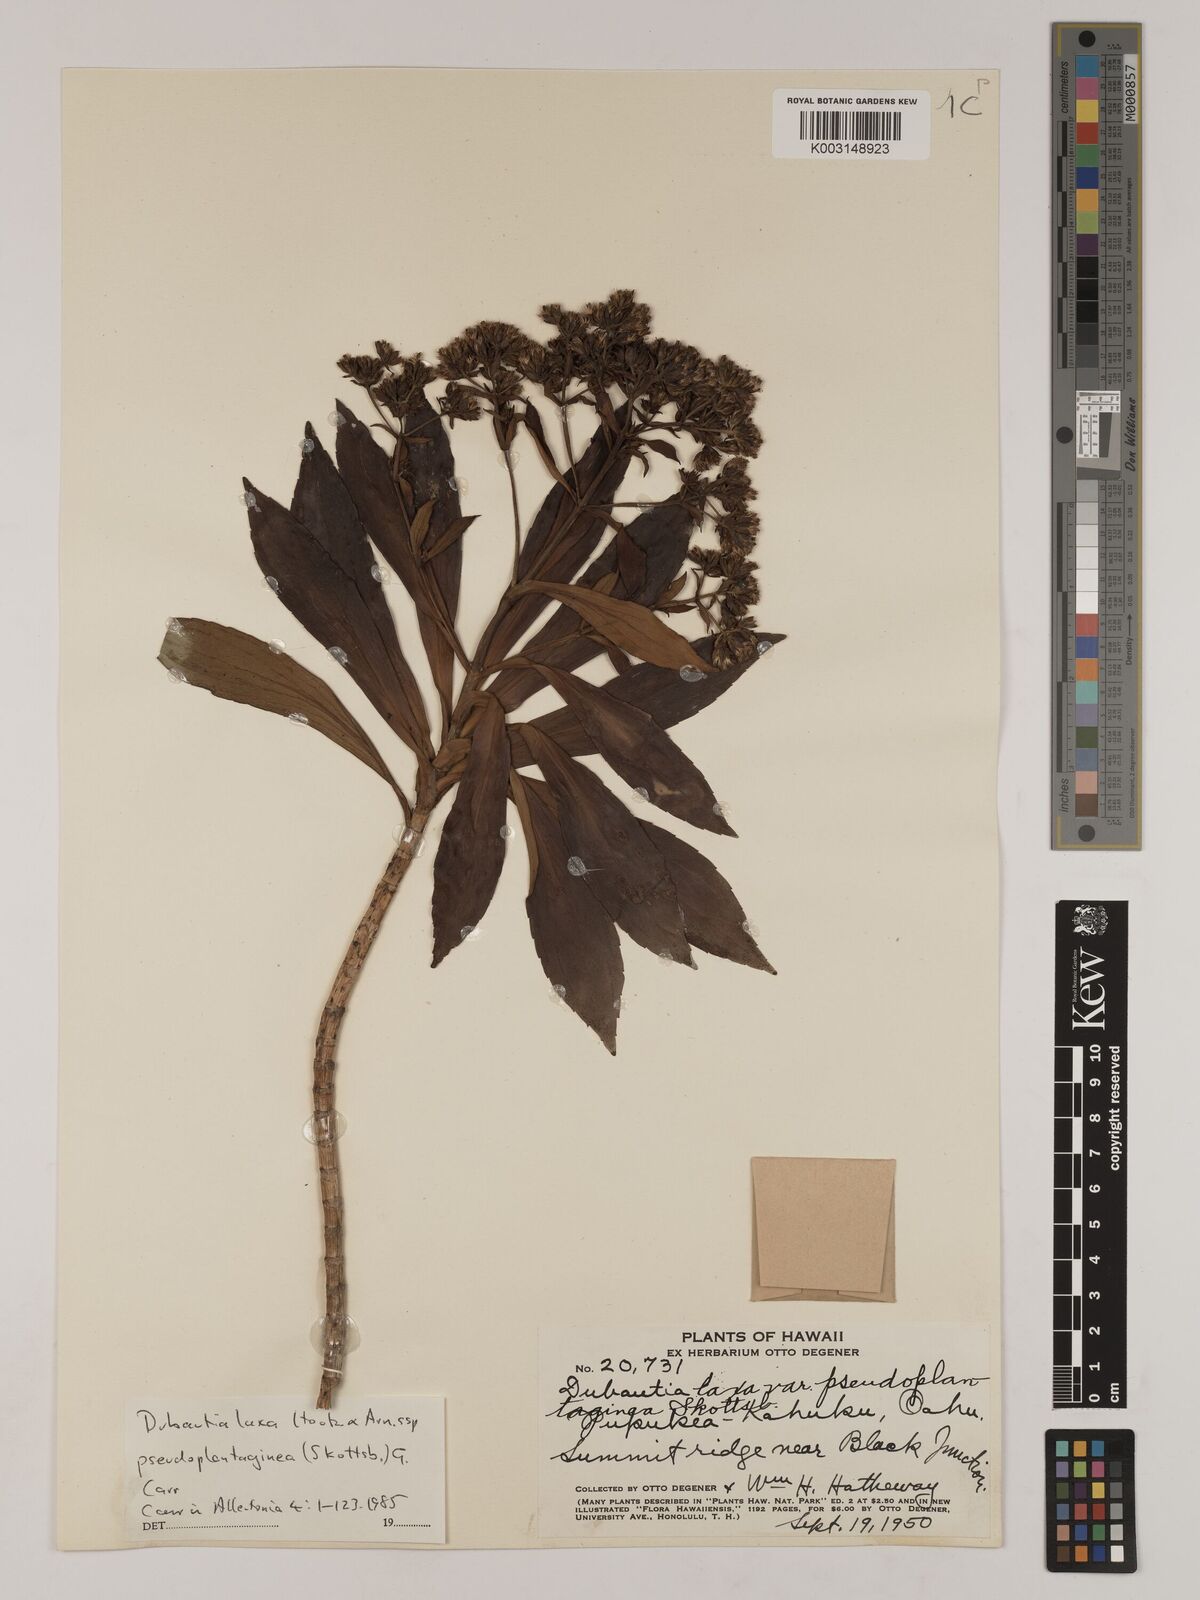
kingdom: Plantae
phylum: Tracheophyta
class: Magnoliopsida
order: Asterales
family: Asteraceae
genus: Dubautia
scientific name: Dubautia laxa
